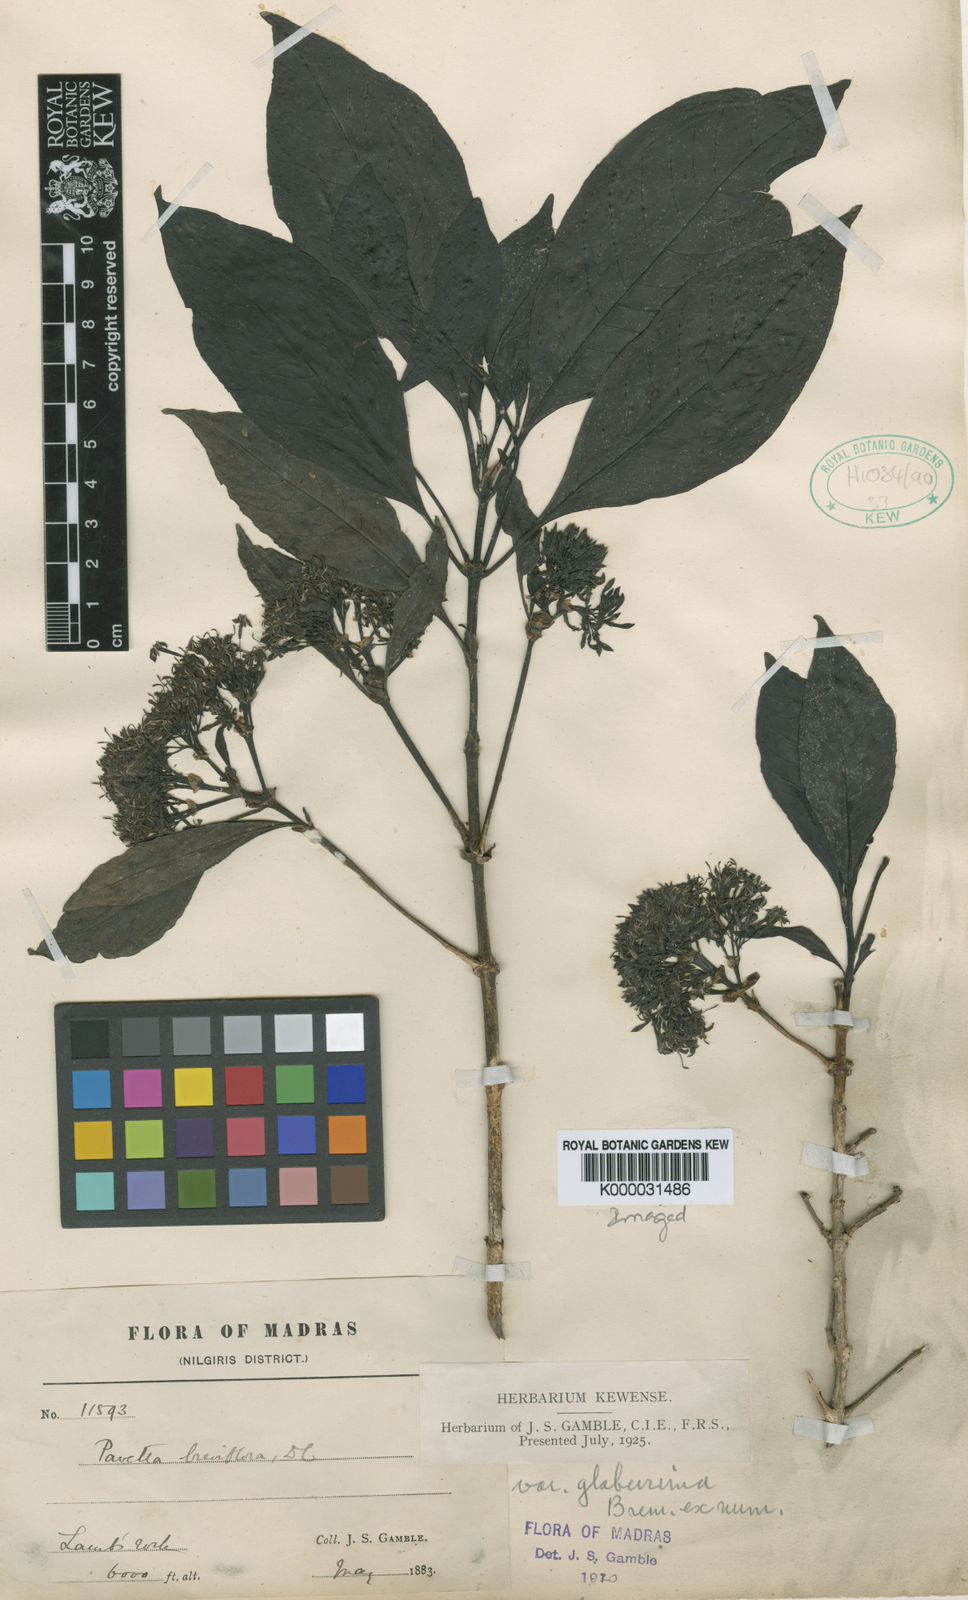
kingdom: Plantae
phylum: Tracheophyta
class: Magnoliopsida
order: Gentianales
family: Rubiaceae
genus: Pavetta
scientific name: Pavetta breviflora
